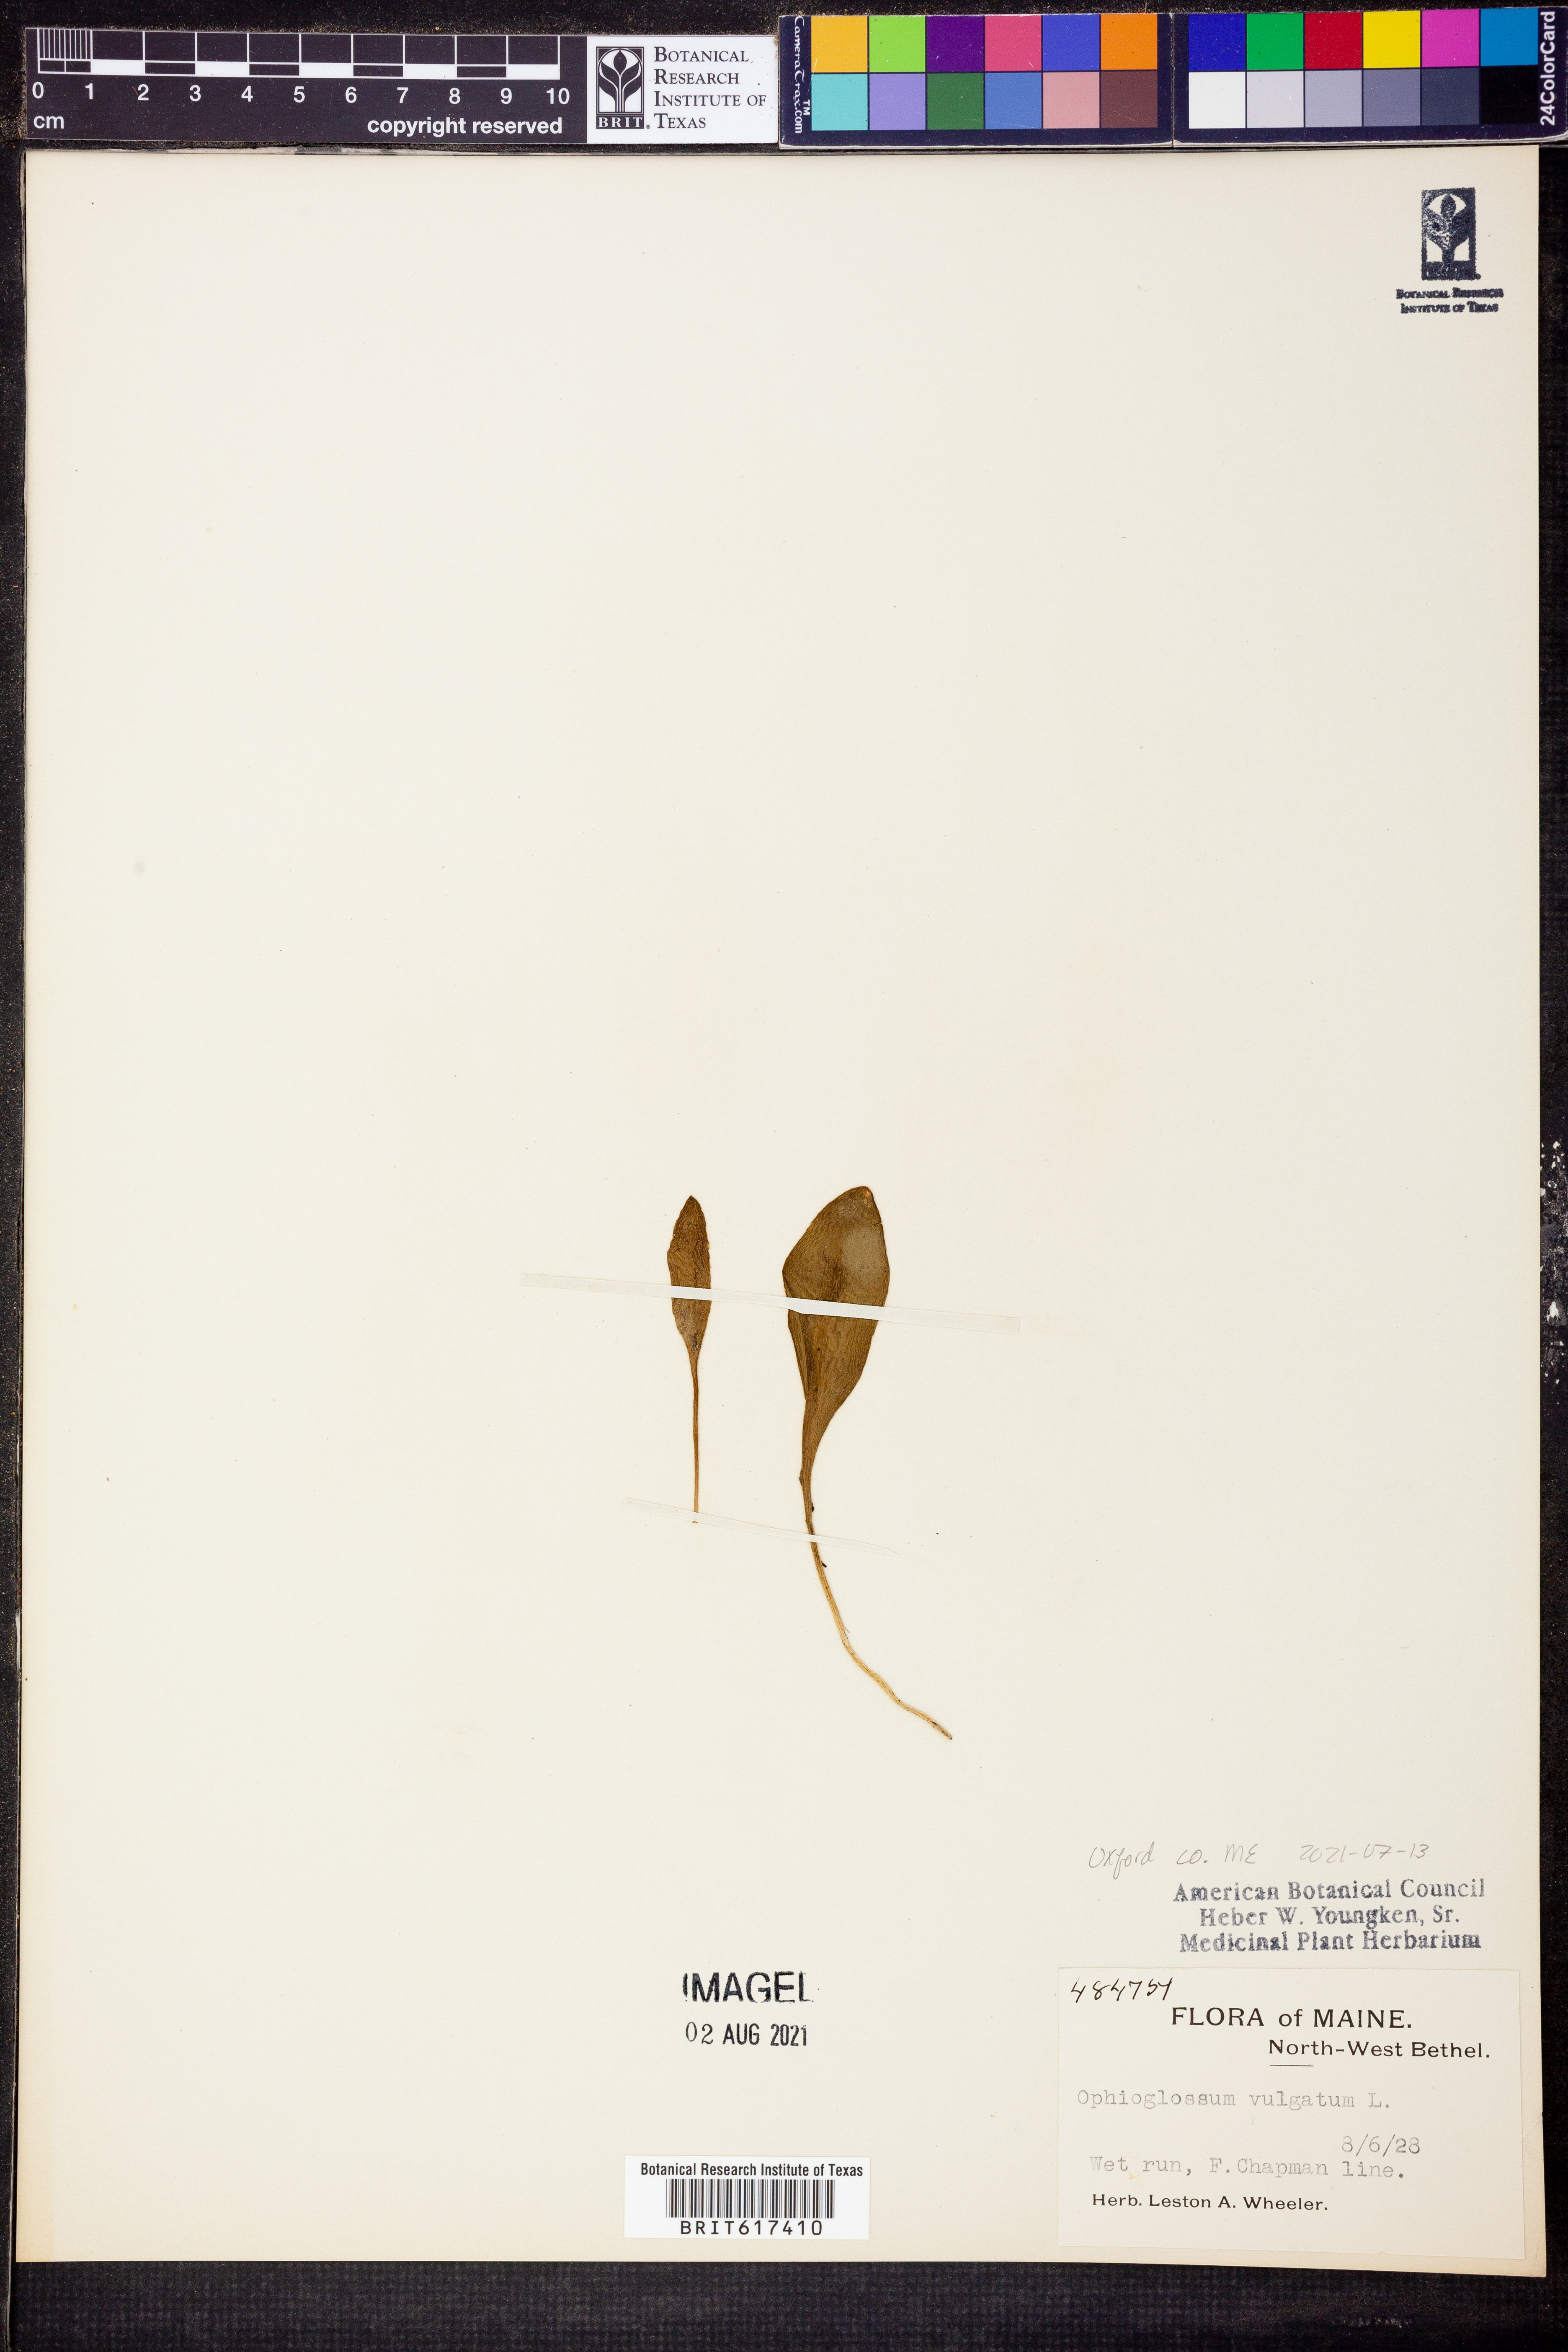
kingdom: Plantae
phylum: Tracheophyta
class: Polypodiopsida
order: Ophioglossales
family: Ophioglossaceae
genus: Ophioglossum
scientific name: Ophioglossum vulgatum
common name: Adder's-tongue
